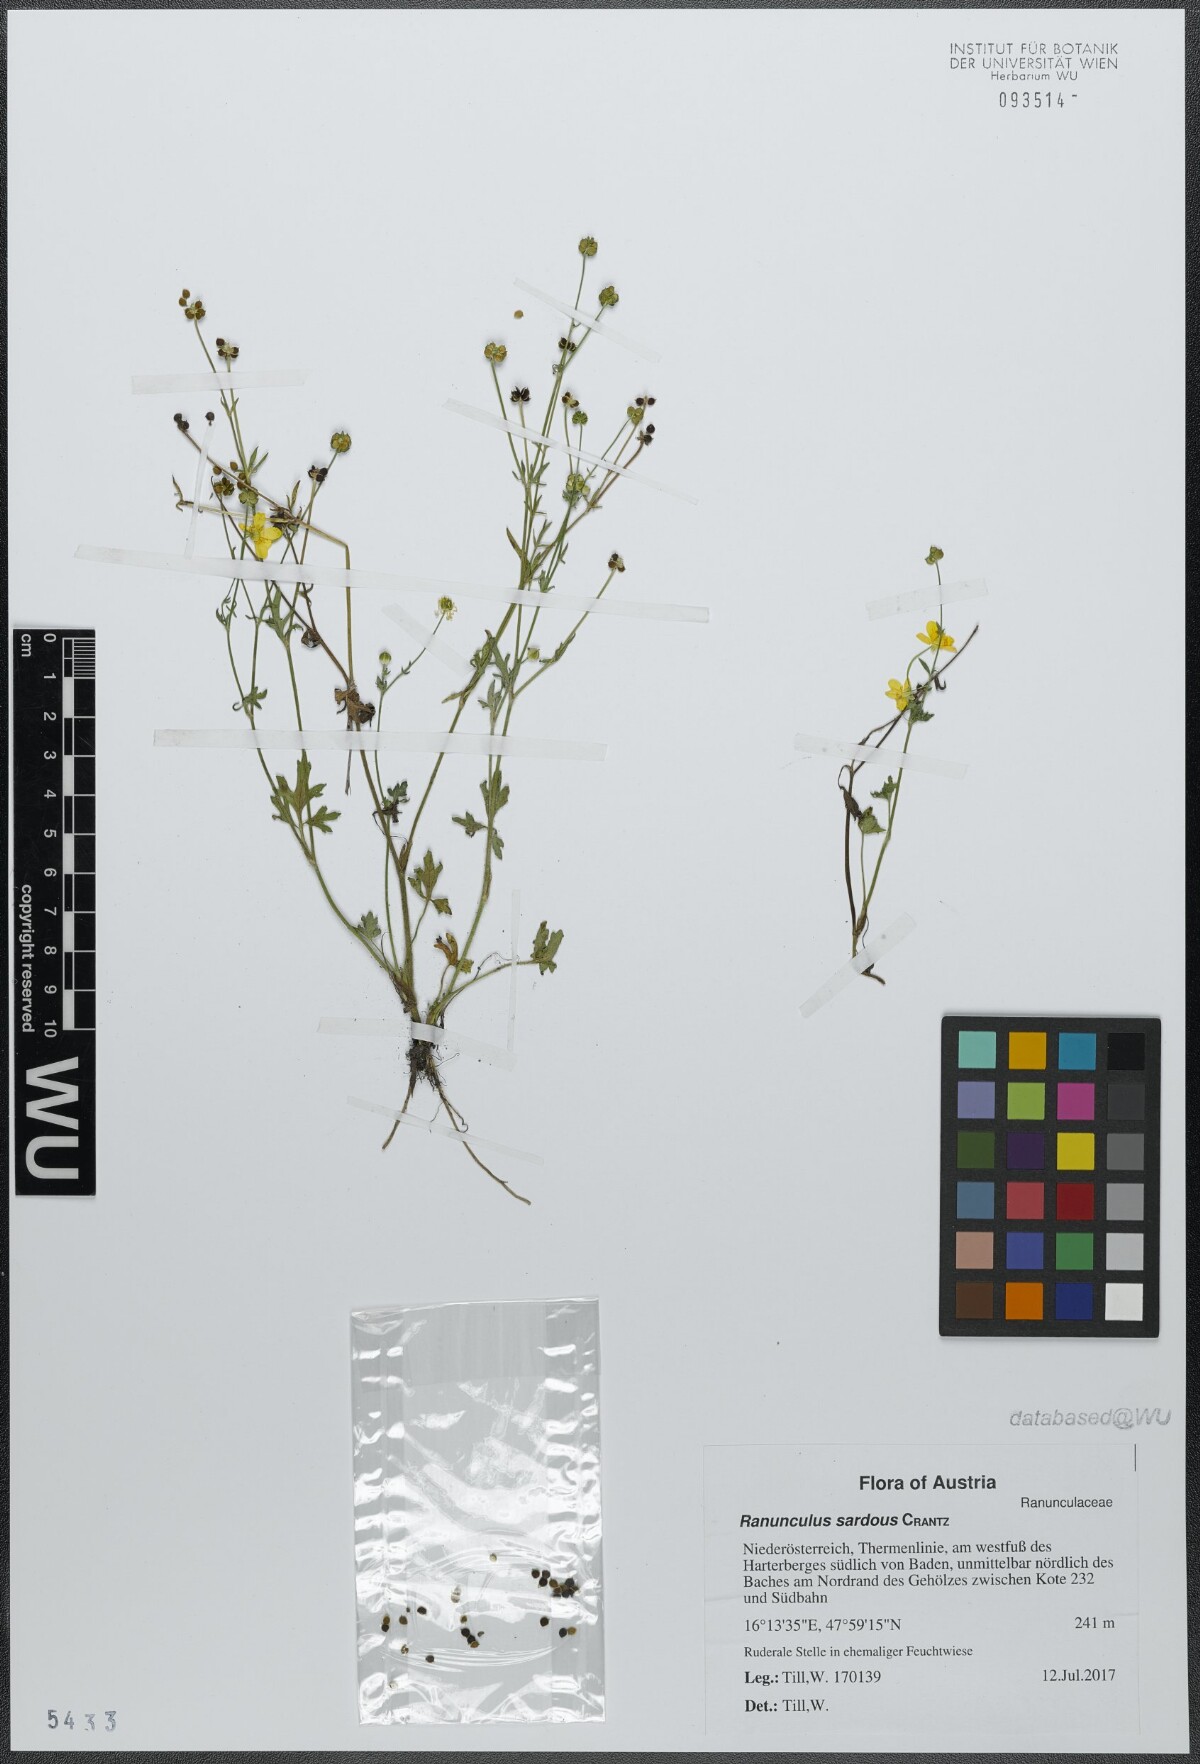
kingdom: Plantae
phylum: Tracheophyta
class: Magnoliopsida
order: Ranunculales
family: Ranunculaceae
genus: Ranunculus
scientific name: Ranunculus sardous
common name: Hairy buttercup
